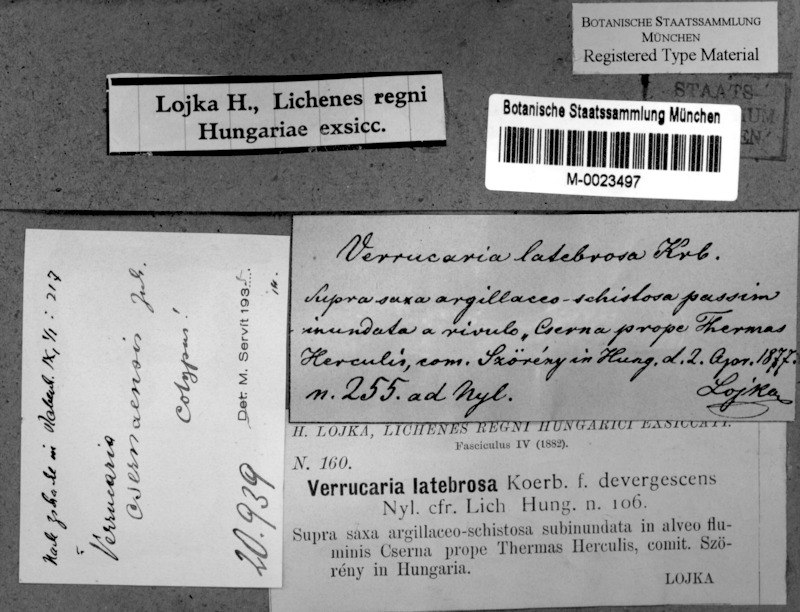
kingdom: Fungi
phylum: Ascomycota
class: Eurotiomycetes
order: Verrucariales
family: Verrucariaceae
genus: Verrucaria
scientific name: Verrucaria cernaensis
